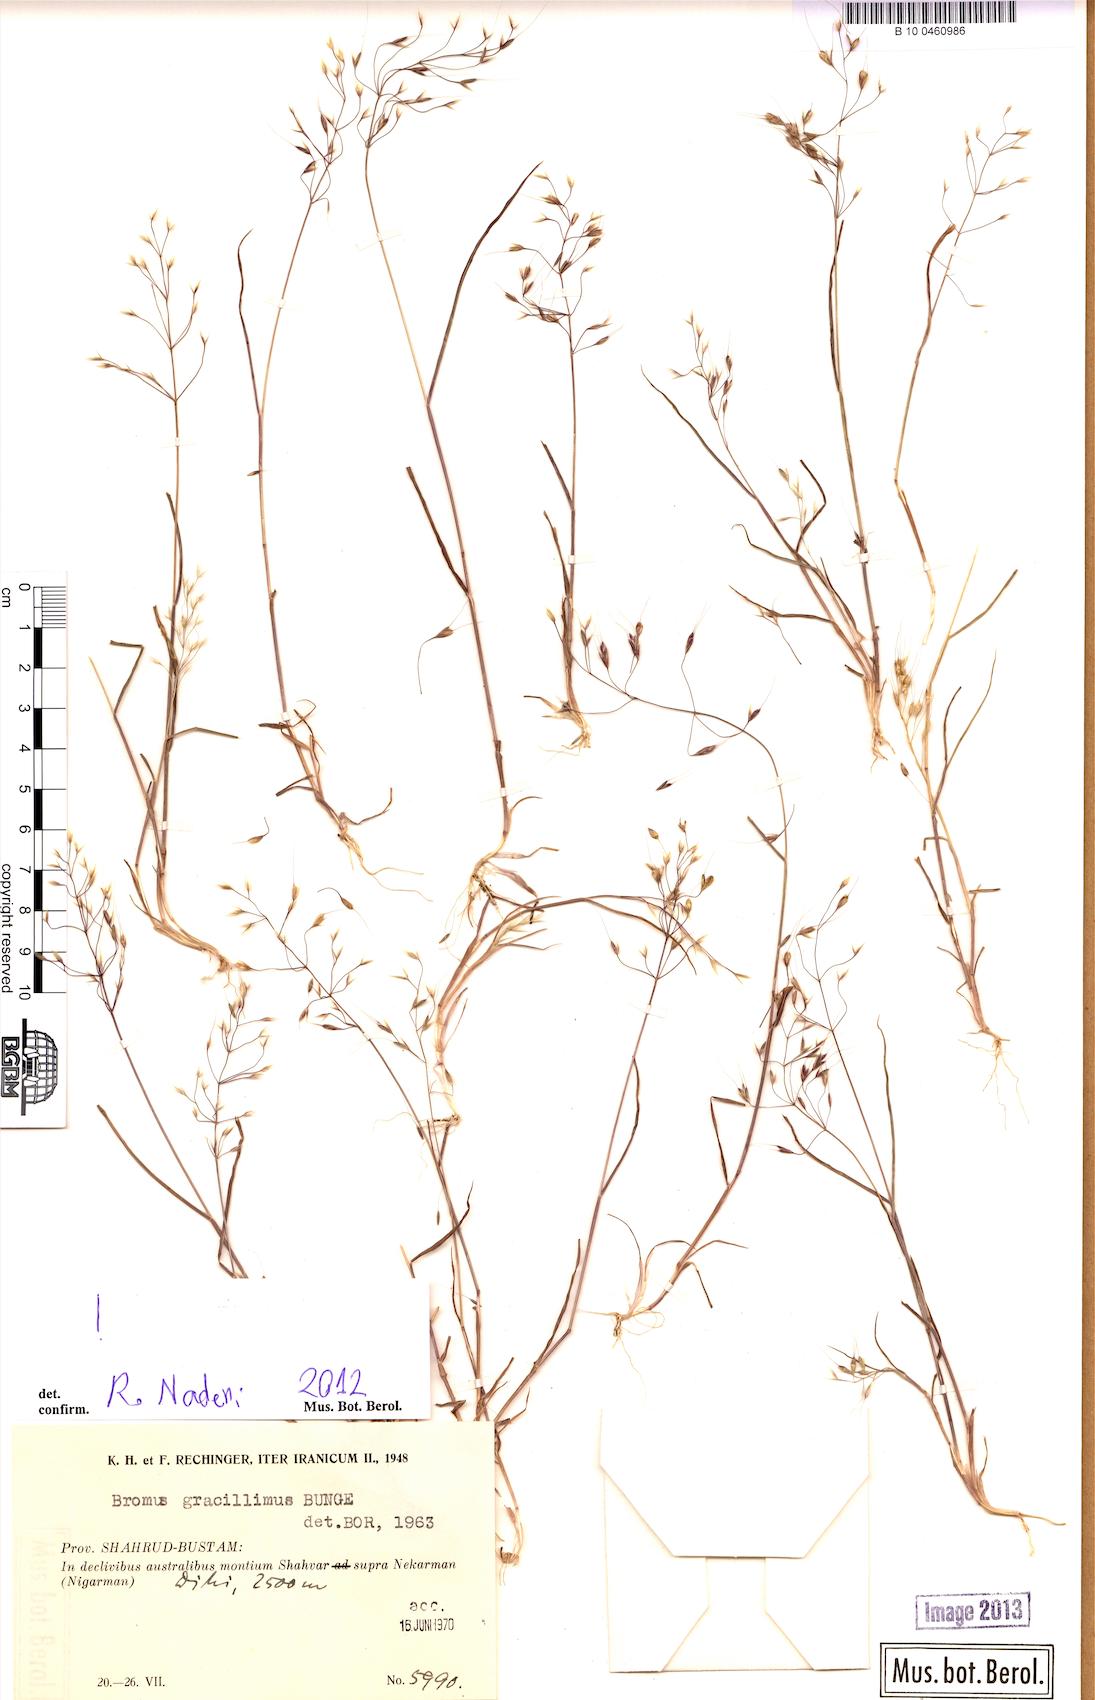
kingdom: Plantae
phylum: Tracheophyta
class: Liliopsida
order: Poales
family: Poaceae
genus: Bromus
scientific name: Bromus gracillimus
